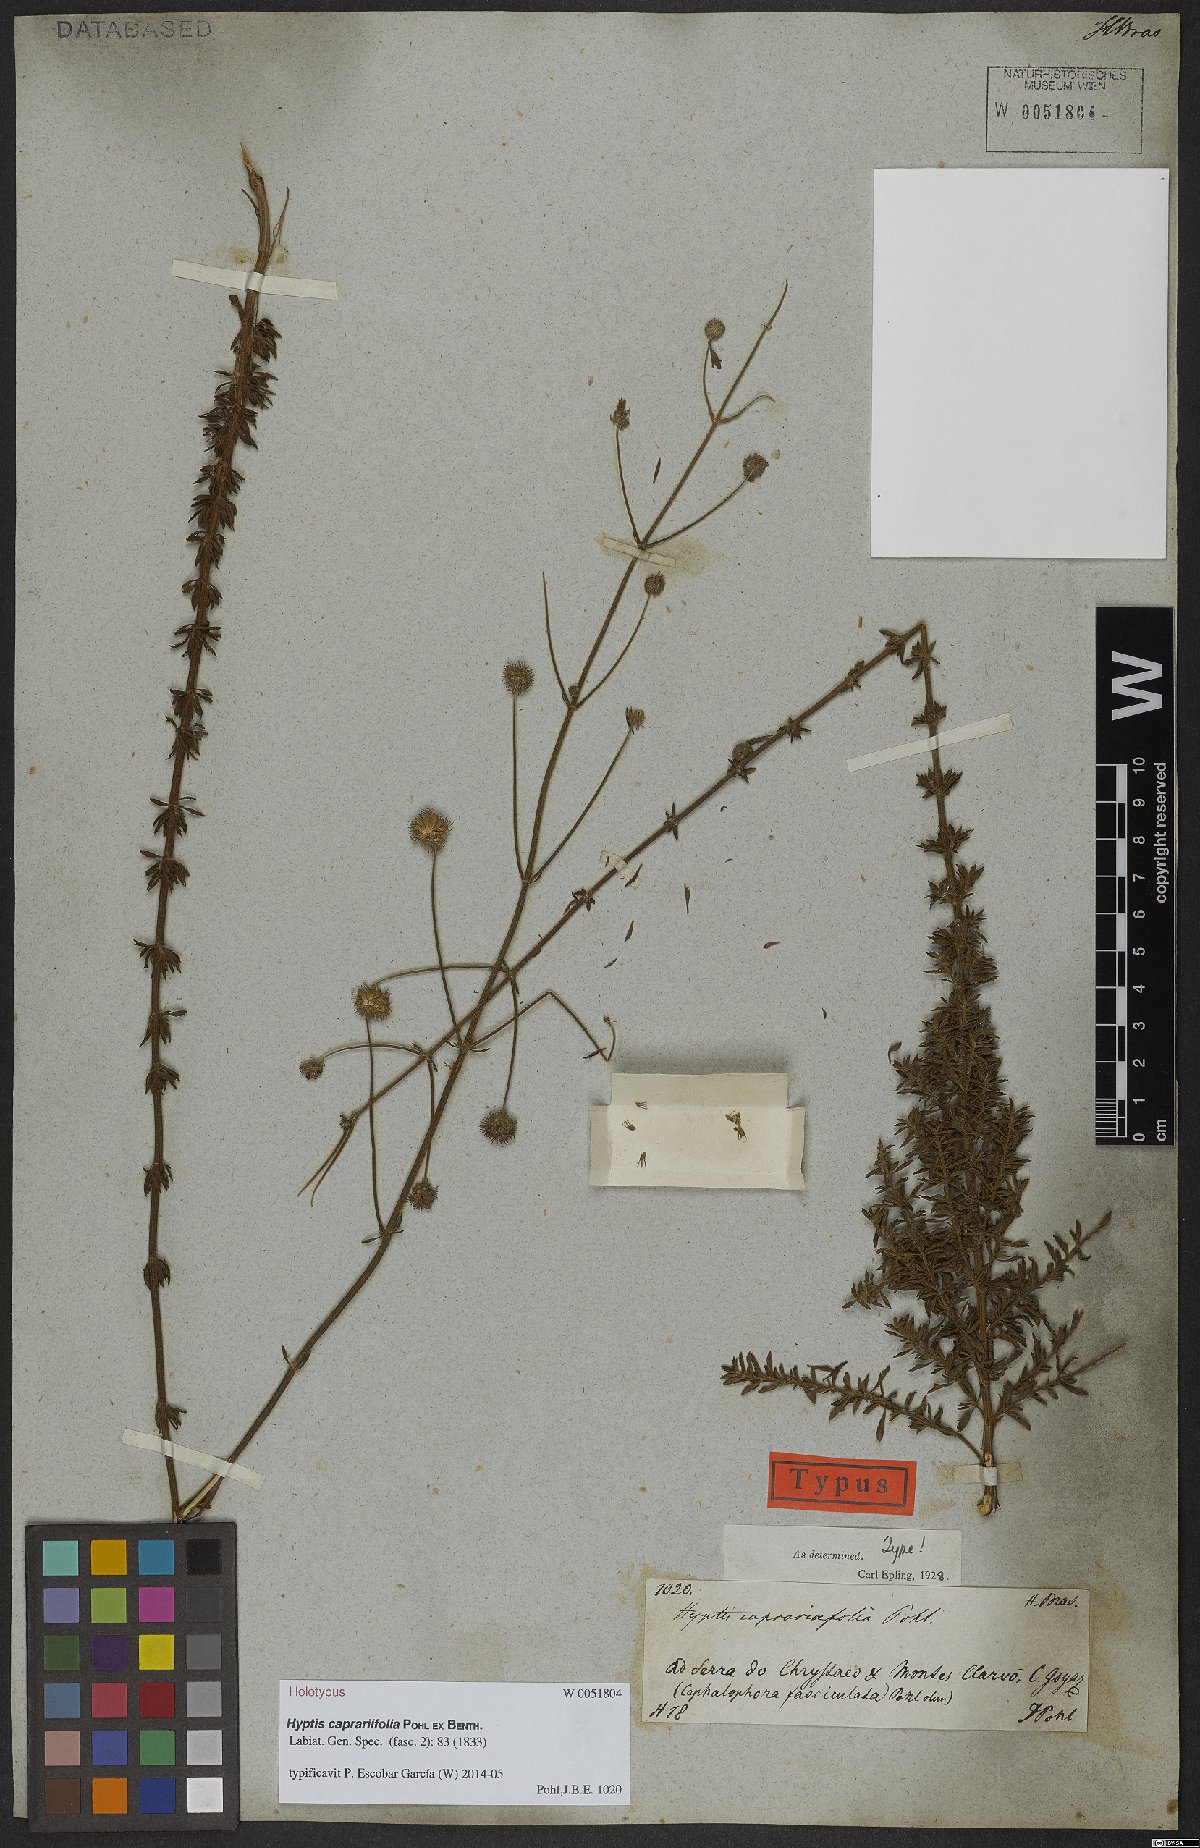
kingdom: Plantae
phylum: Tracheophyta
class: Magnoliopsida
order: Lamiales
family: Lamiaceae
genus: Cyanocephalus
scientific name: Cyanocephalus caprariifolius
